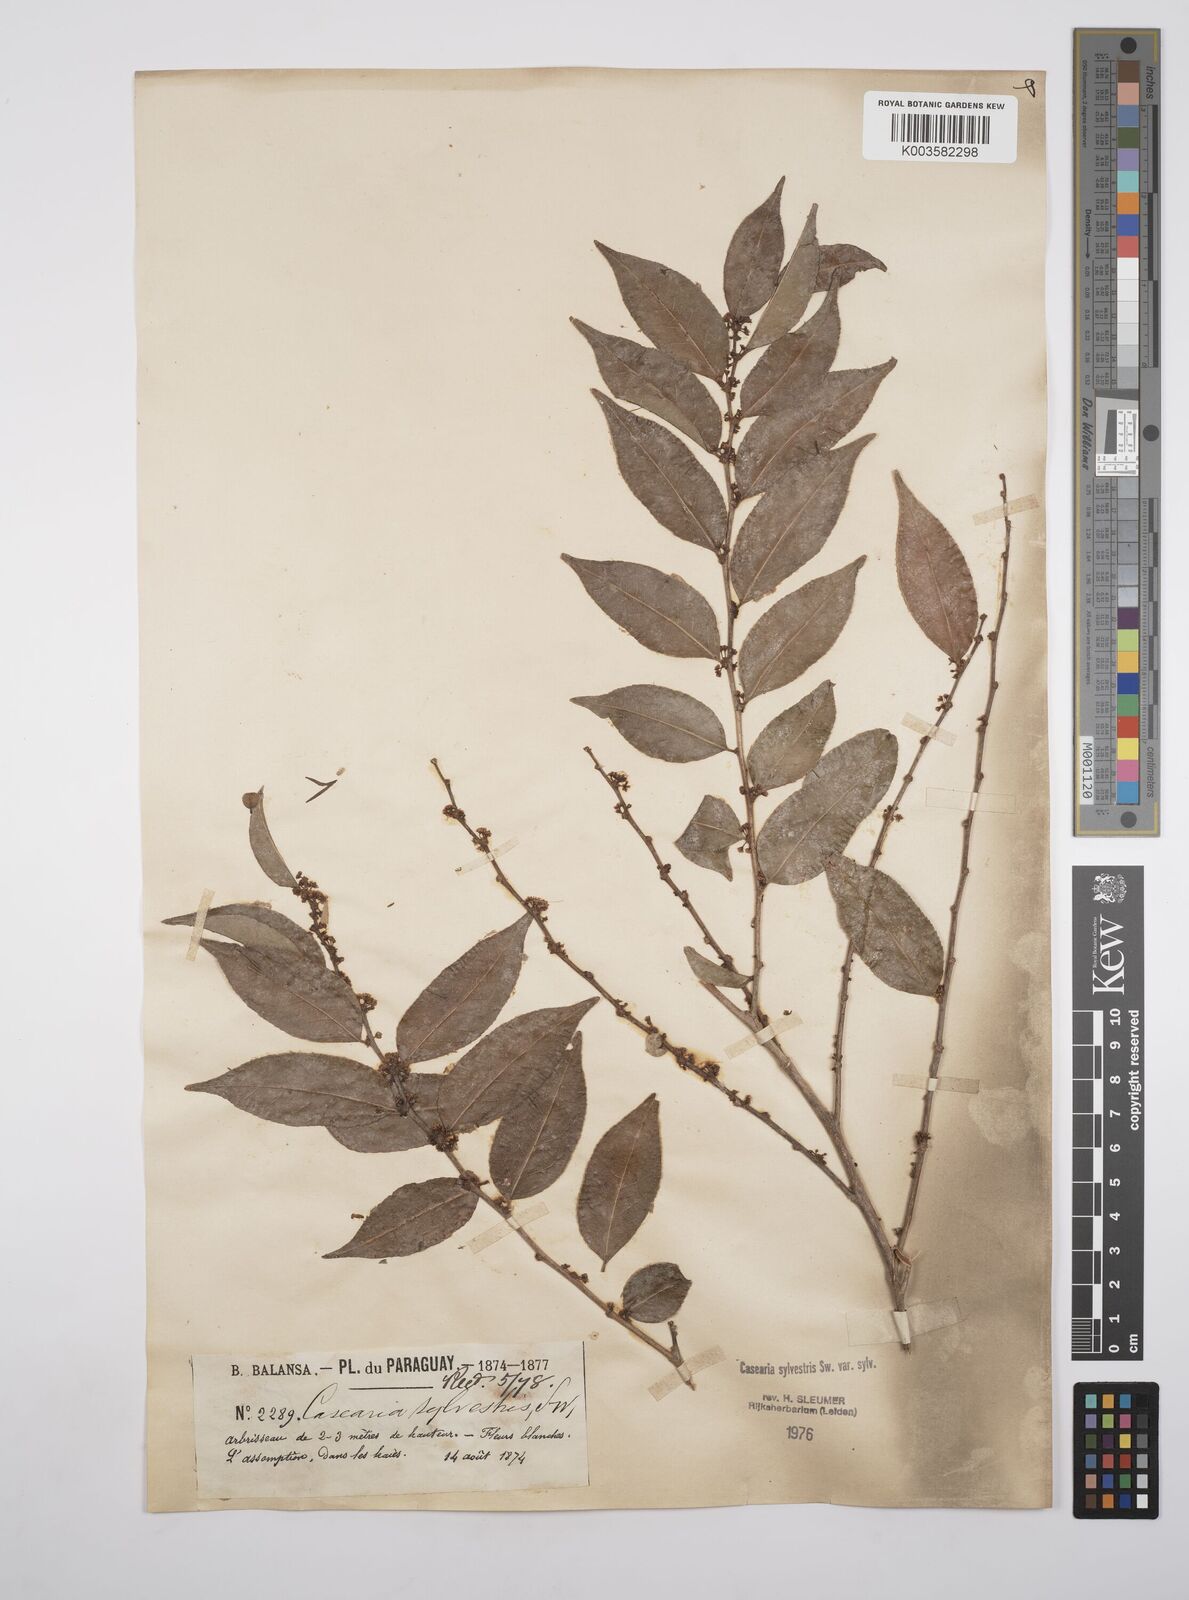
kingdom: Plantae
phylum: Tracheophyta
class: Magnoliopsida
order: Malpighiales
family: Salicaceae
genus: Casearia
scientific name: Casearia sylvestris
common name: Wild sage
